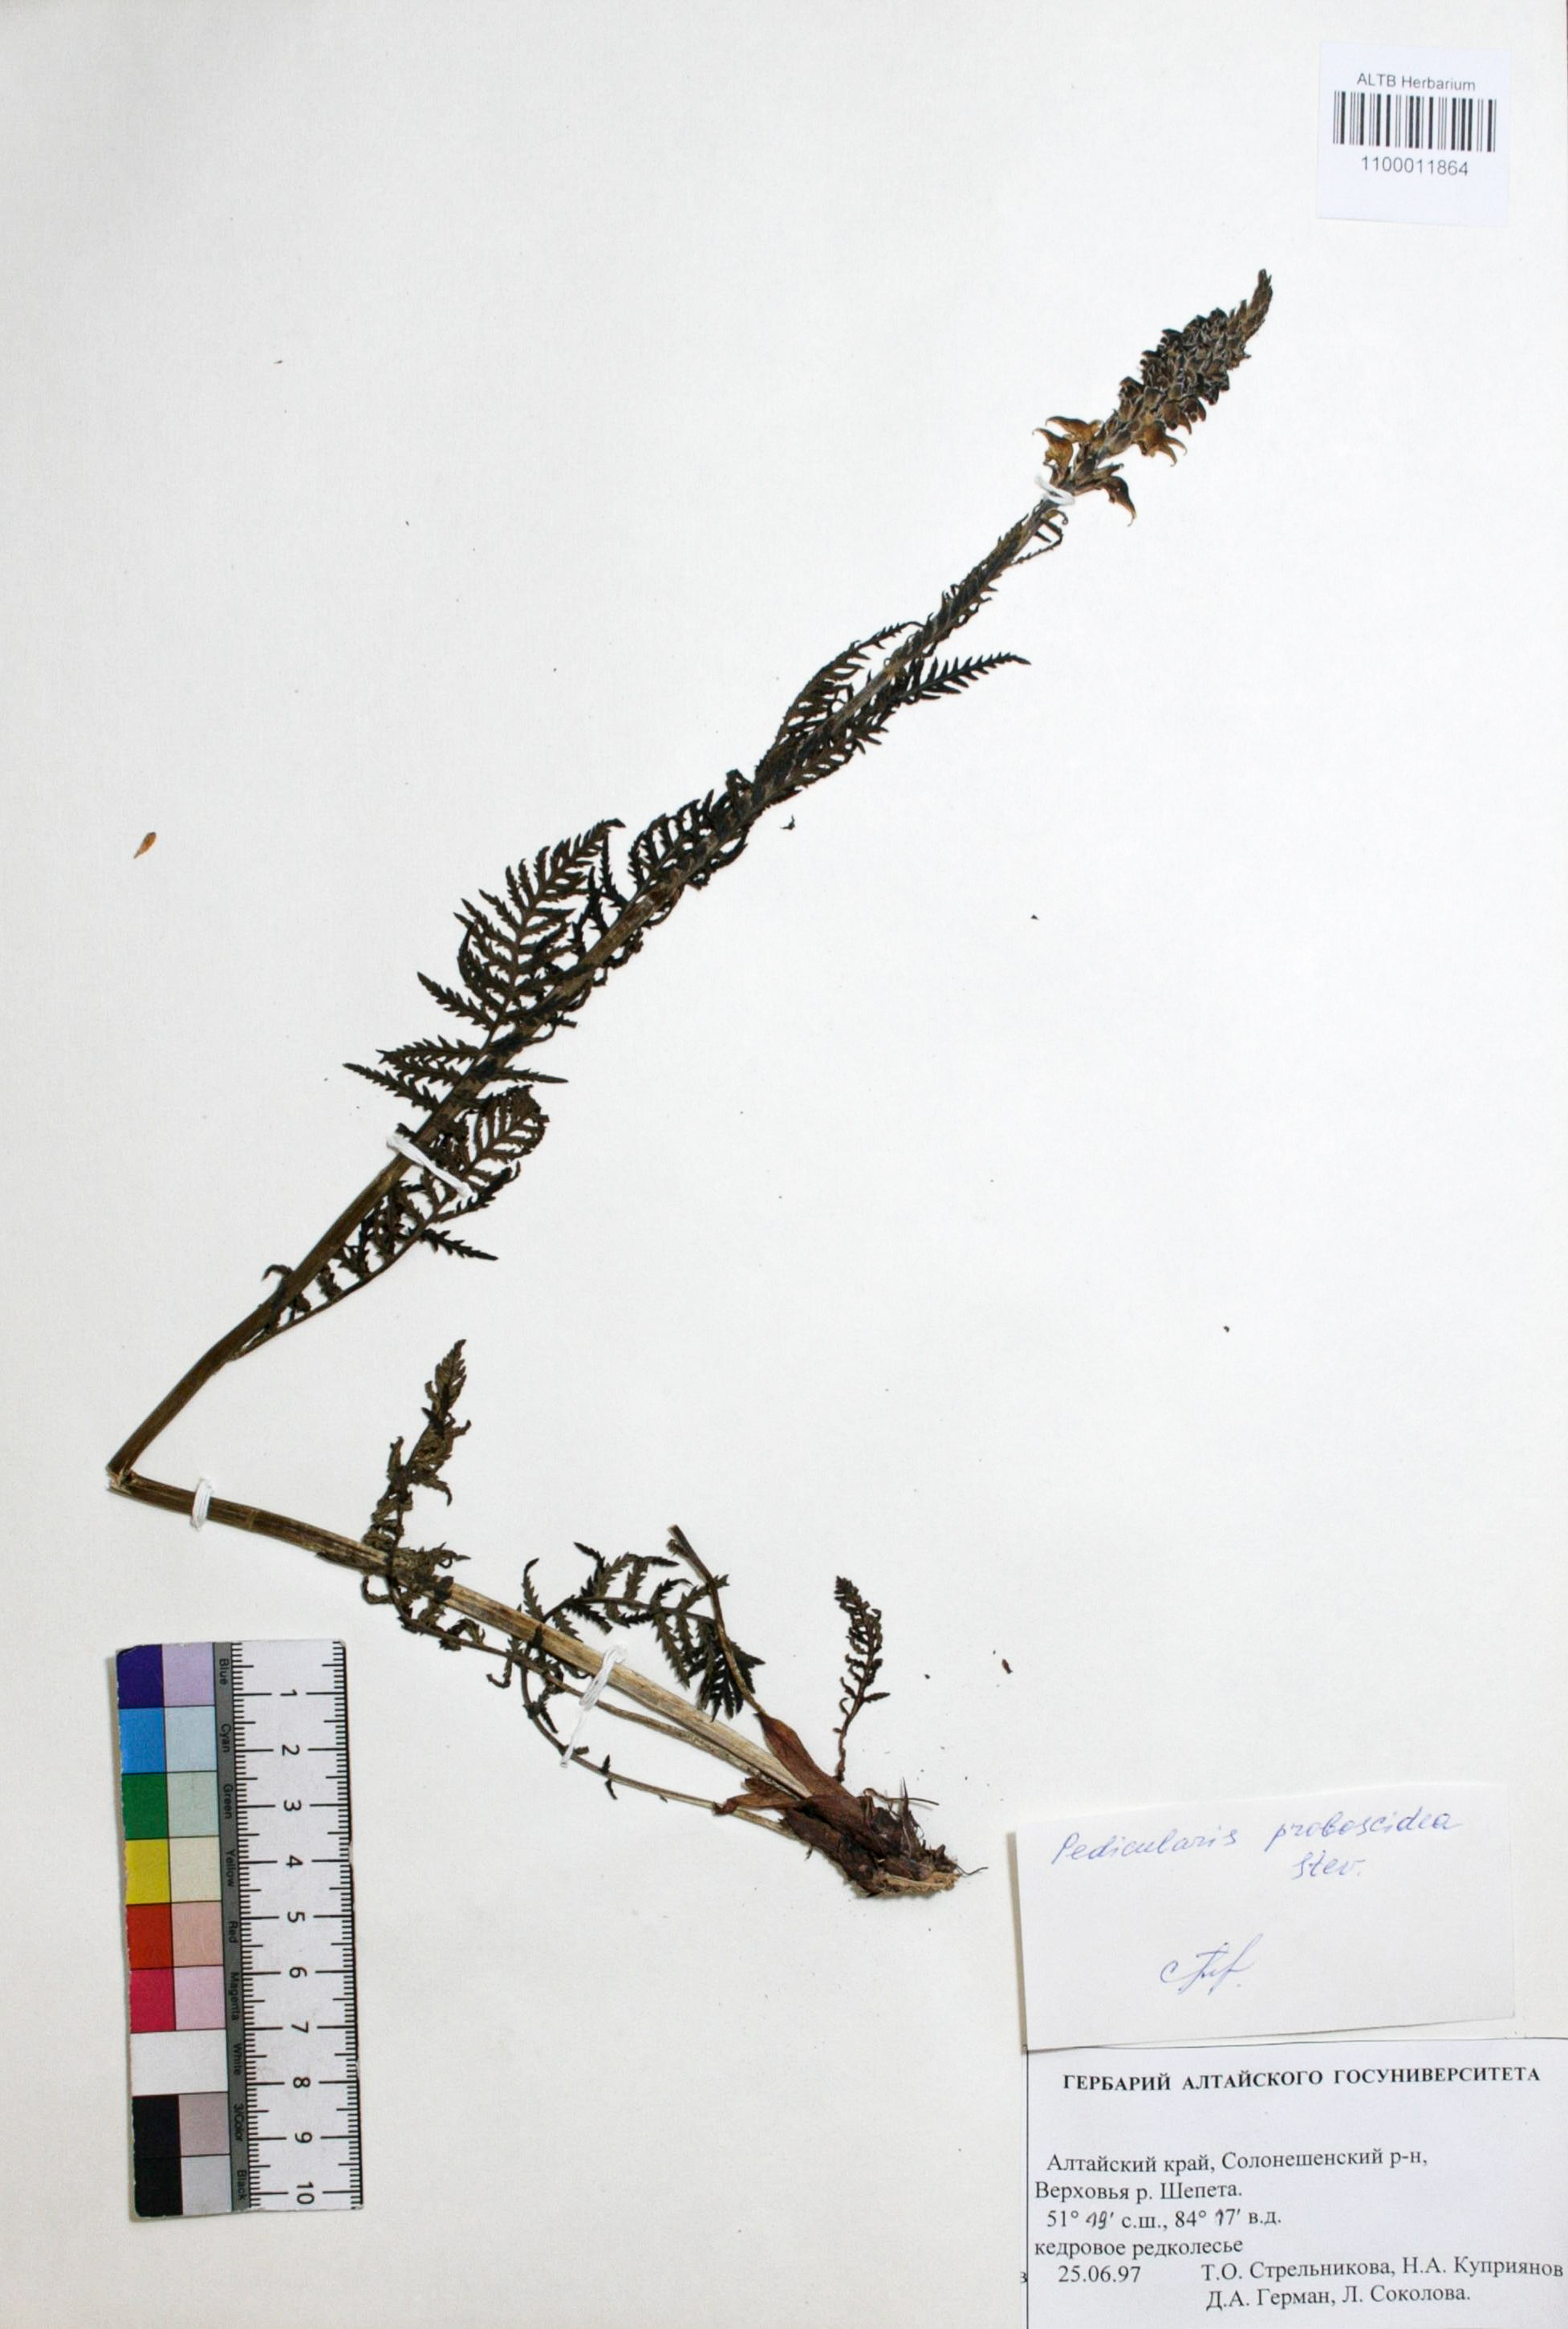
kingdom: Plantae
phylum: Tracheophyta
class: Magnoliopsida
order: Lamiales
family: Orobanchaceae
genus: Pedicularis
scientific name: Pedicularis proboscidea
